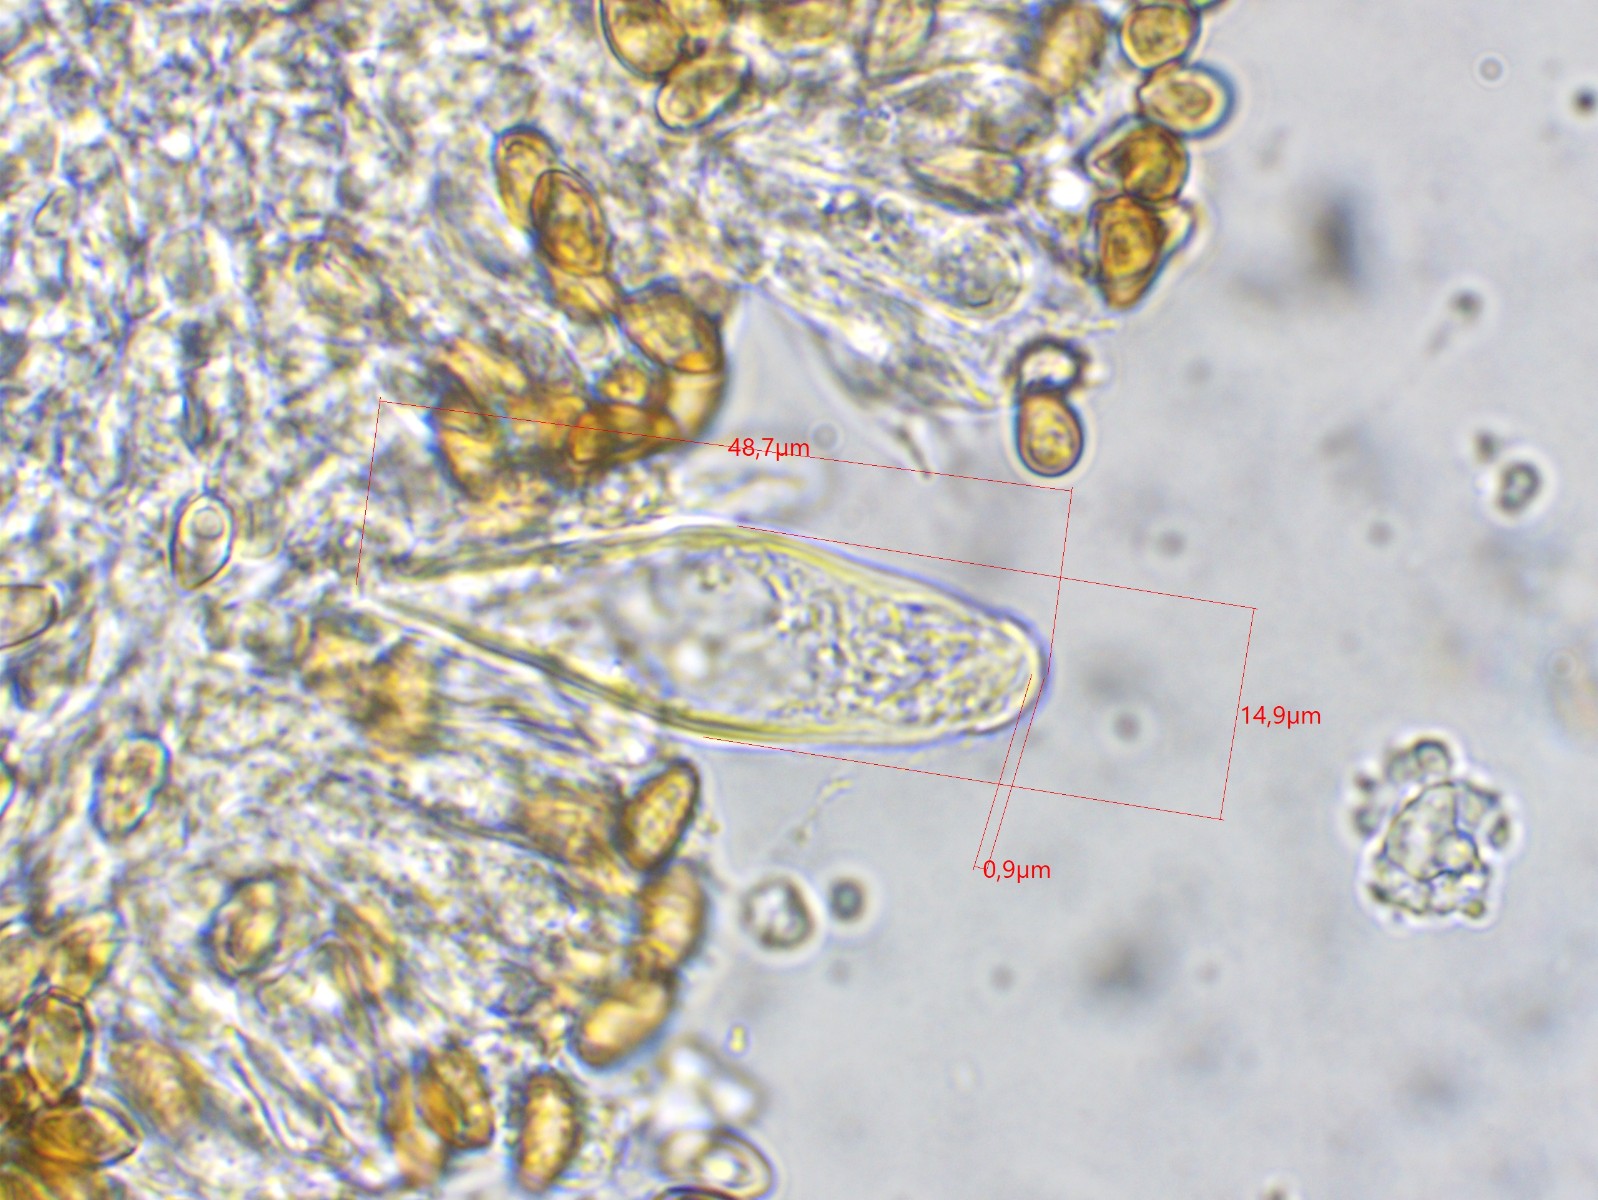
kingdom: Fungi
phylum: Basidiomycota
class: Agaricomycetes
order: Agaricales
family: Inocybaceae
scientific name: Inocybaceae
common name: trævlhatfamilien
